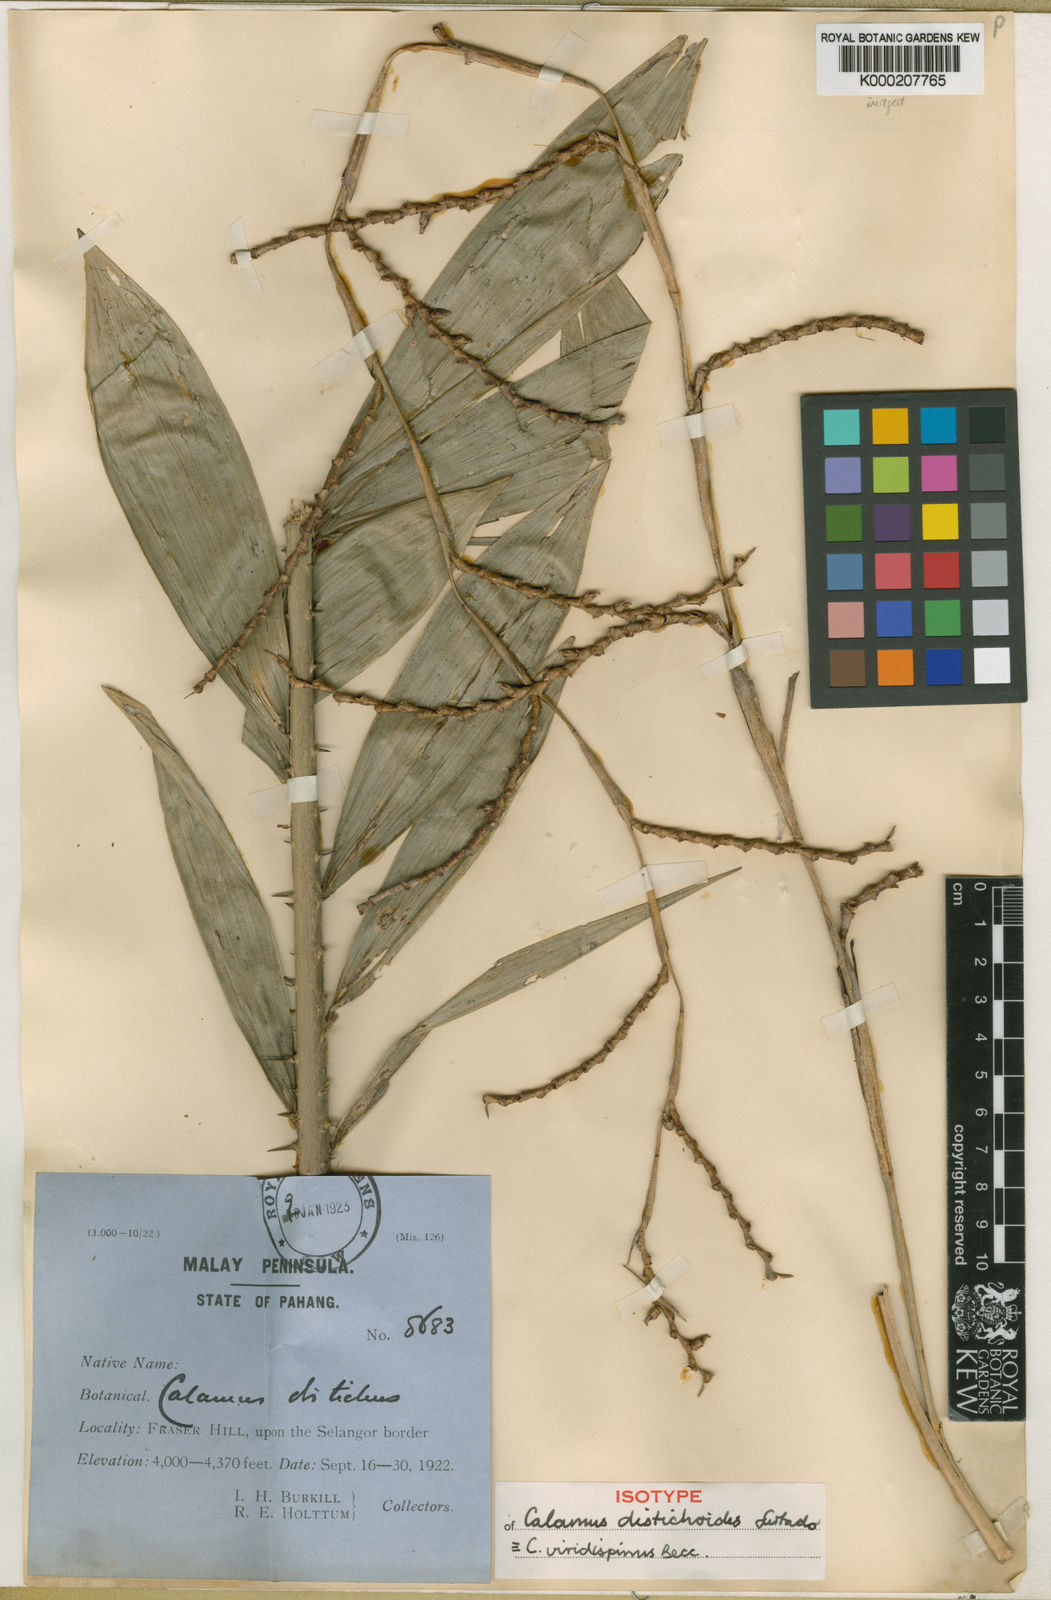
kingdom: Plantae
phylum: Tracheophyta
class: Liliopsida
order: Arecales
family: Arecaceae
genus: Calamus
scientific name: Calamus helferianus
